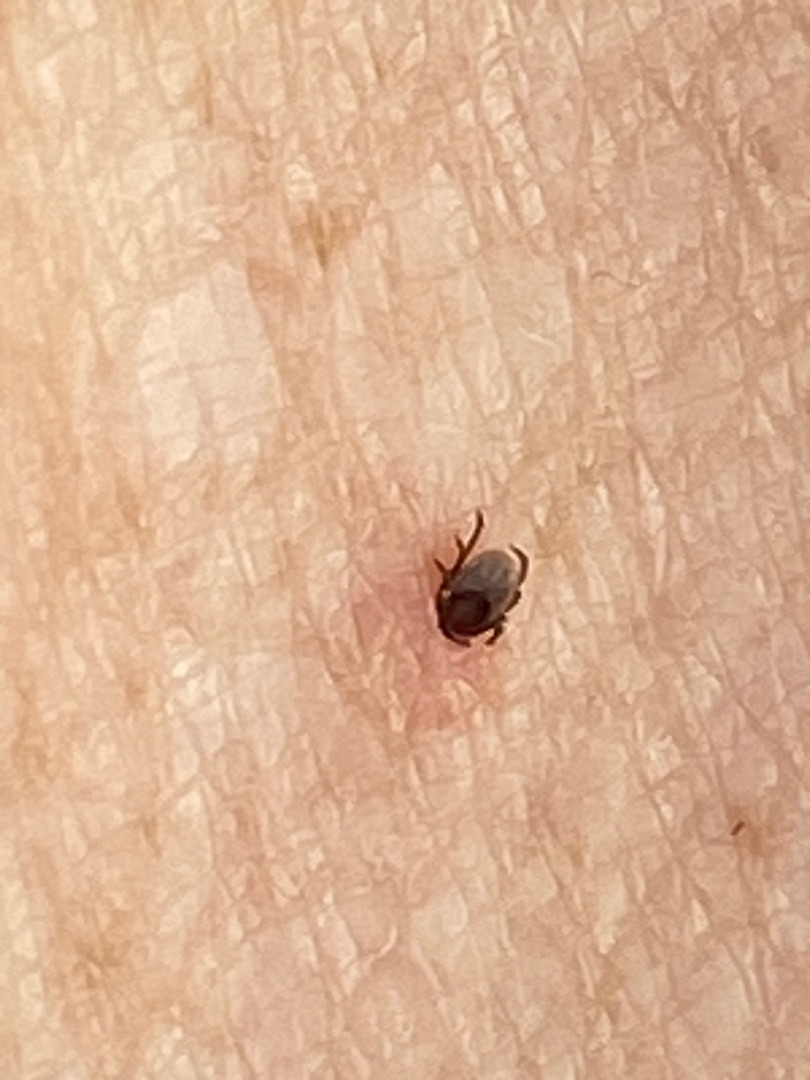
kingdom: Animalia
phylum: Arthropoda
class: Arachnida
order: Ixodida
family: Ixodidae
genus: Ixodes
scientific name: Ixodes ricinus
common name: Skovflåt
